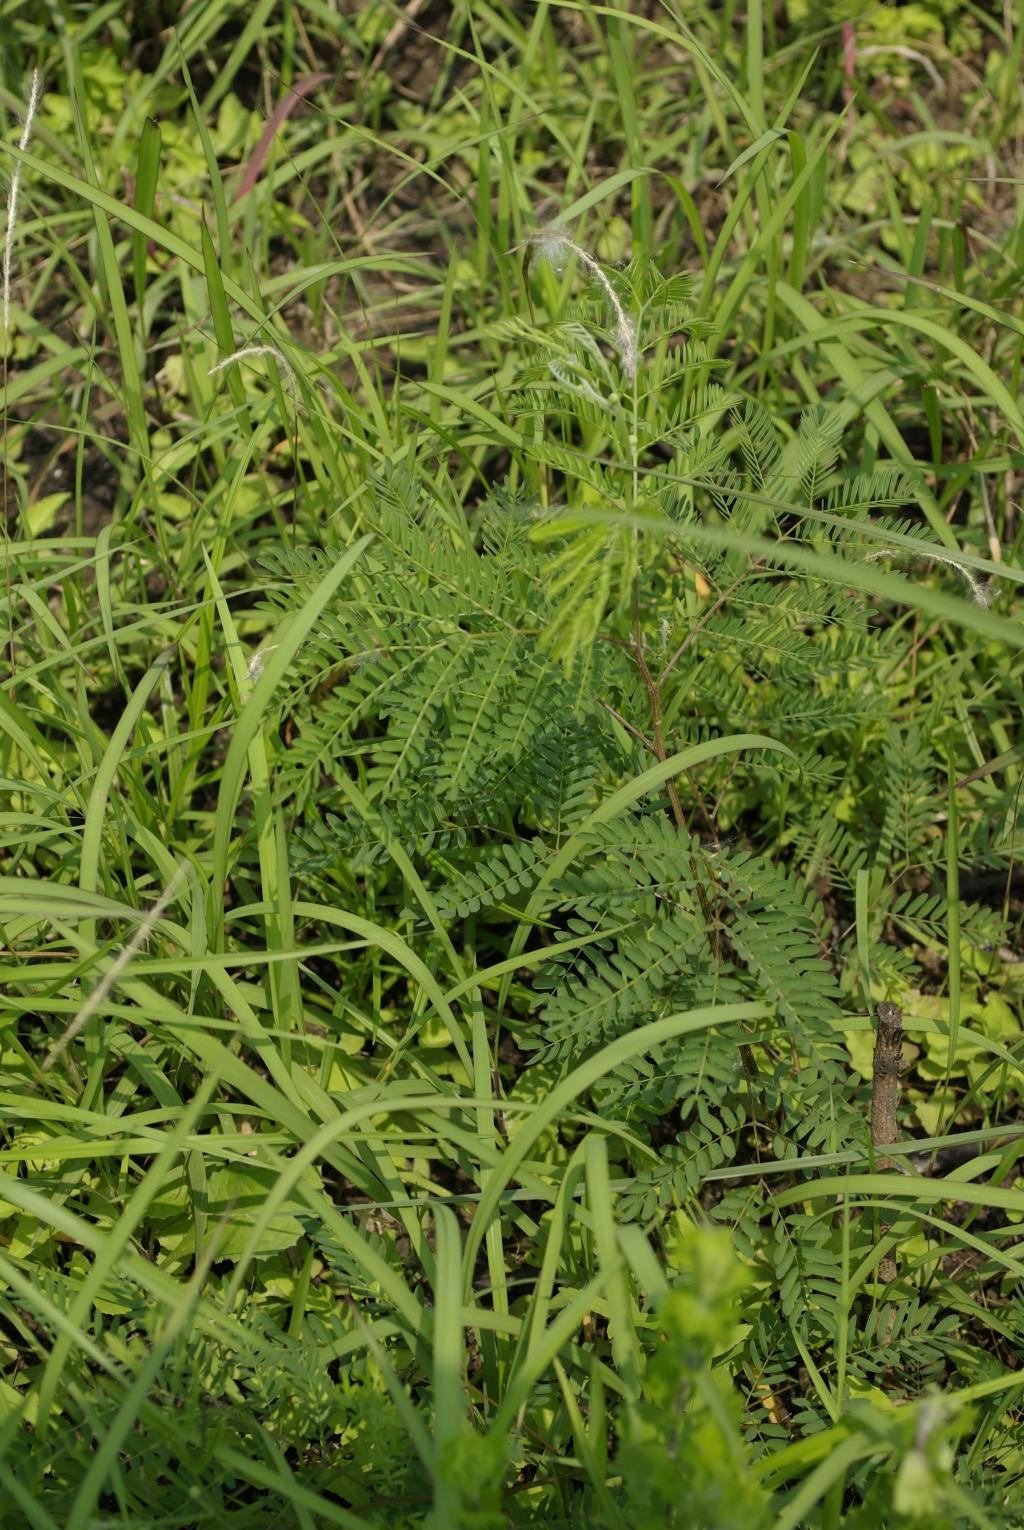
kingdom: Plantae
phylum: Tracheophyta
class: Magnoliopsida
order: Fabales
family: Fabaceae
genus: Leucaena
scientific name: Leucaena leucocephala
